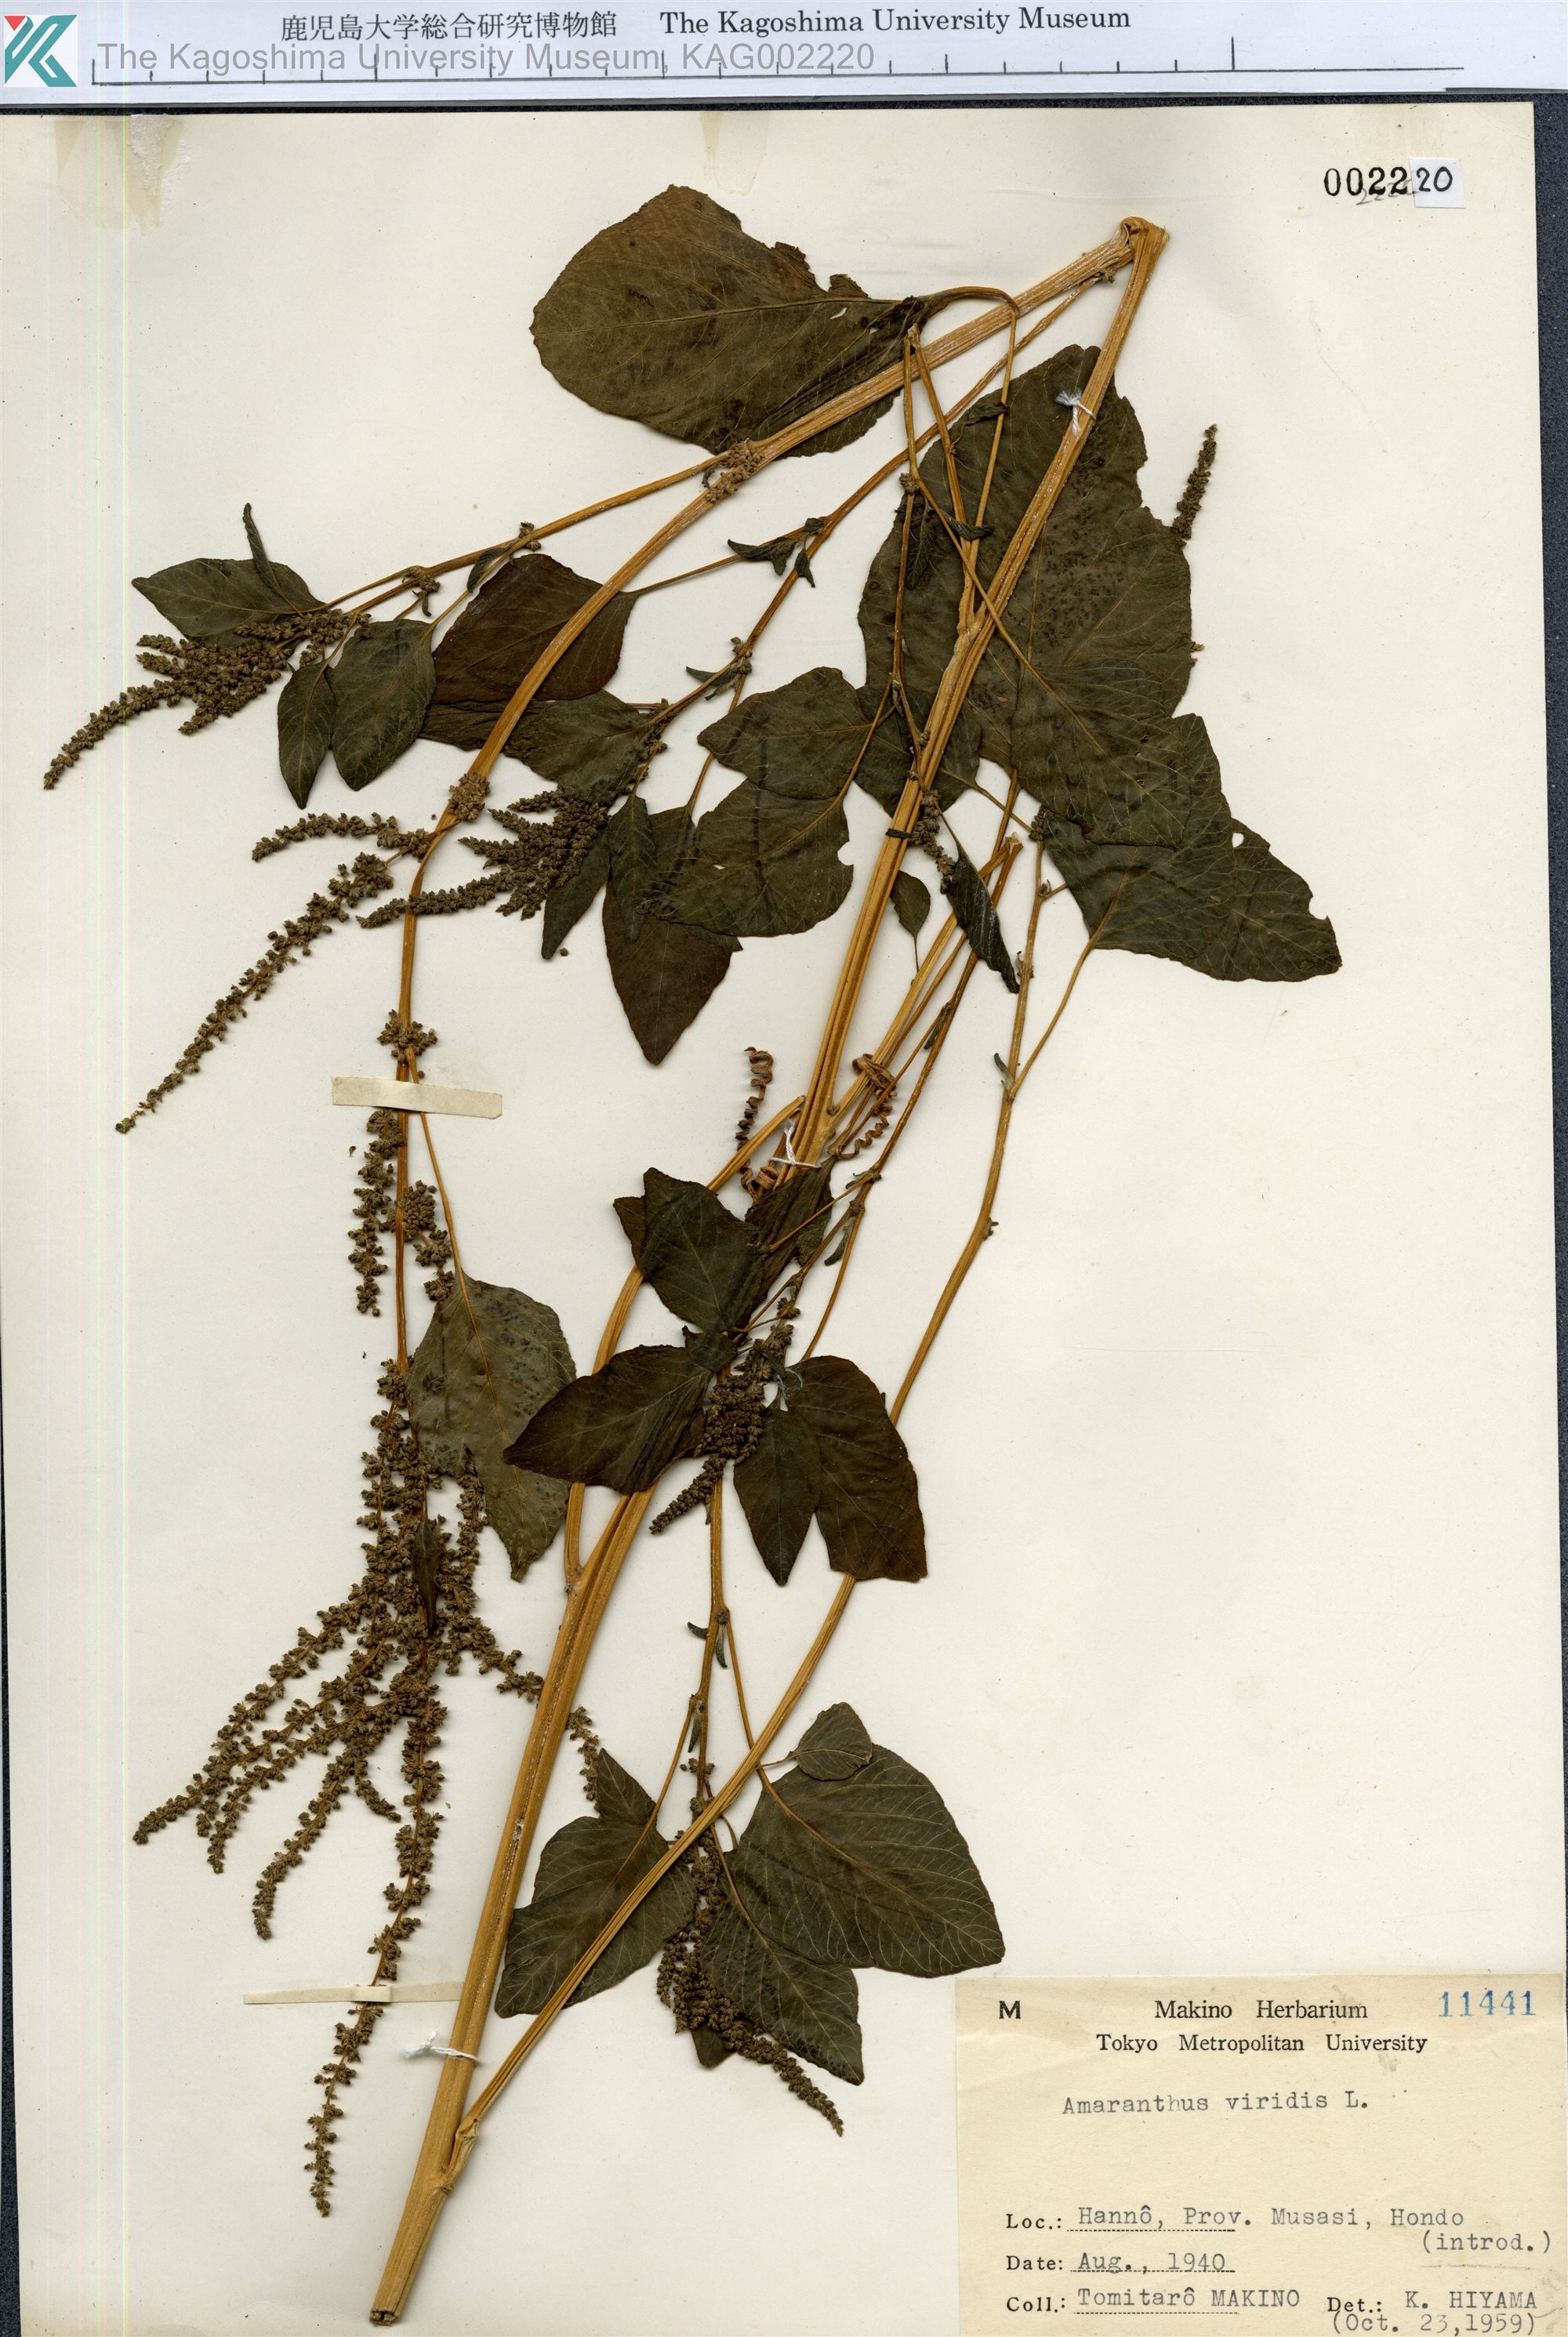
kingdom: Plantae
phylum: Tracheophyta
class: Magnoliopsida
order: Caryophyllales
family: Amaranthaceae
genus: Amaranthus
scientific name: Amaranthus viridis
